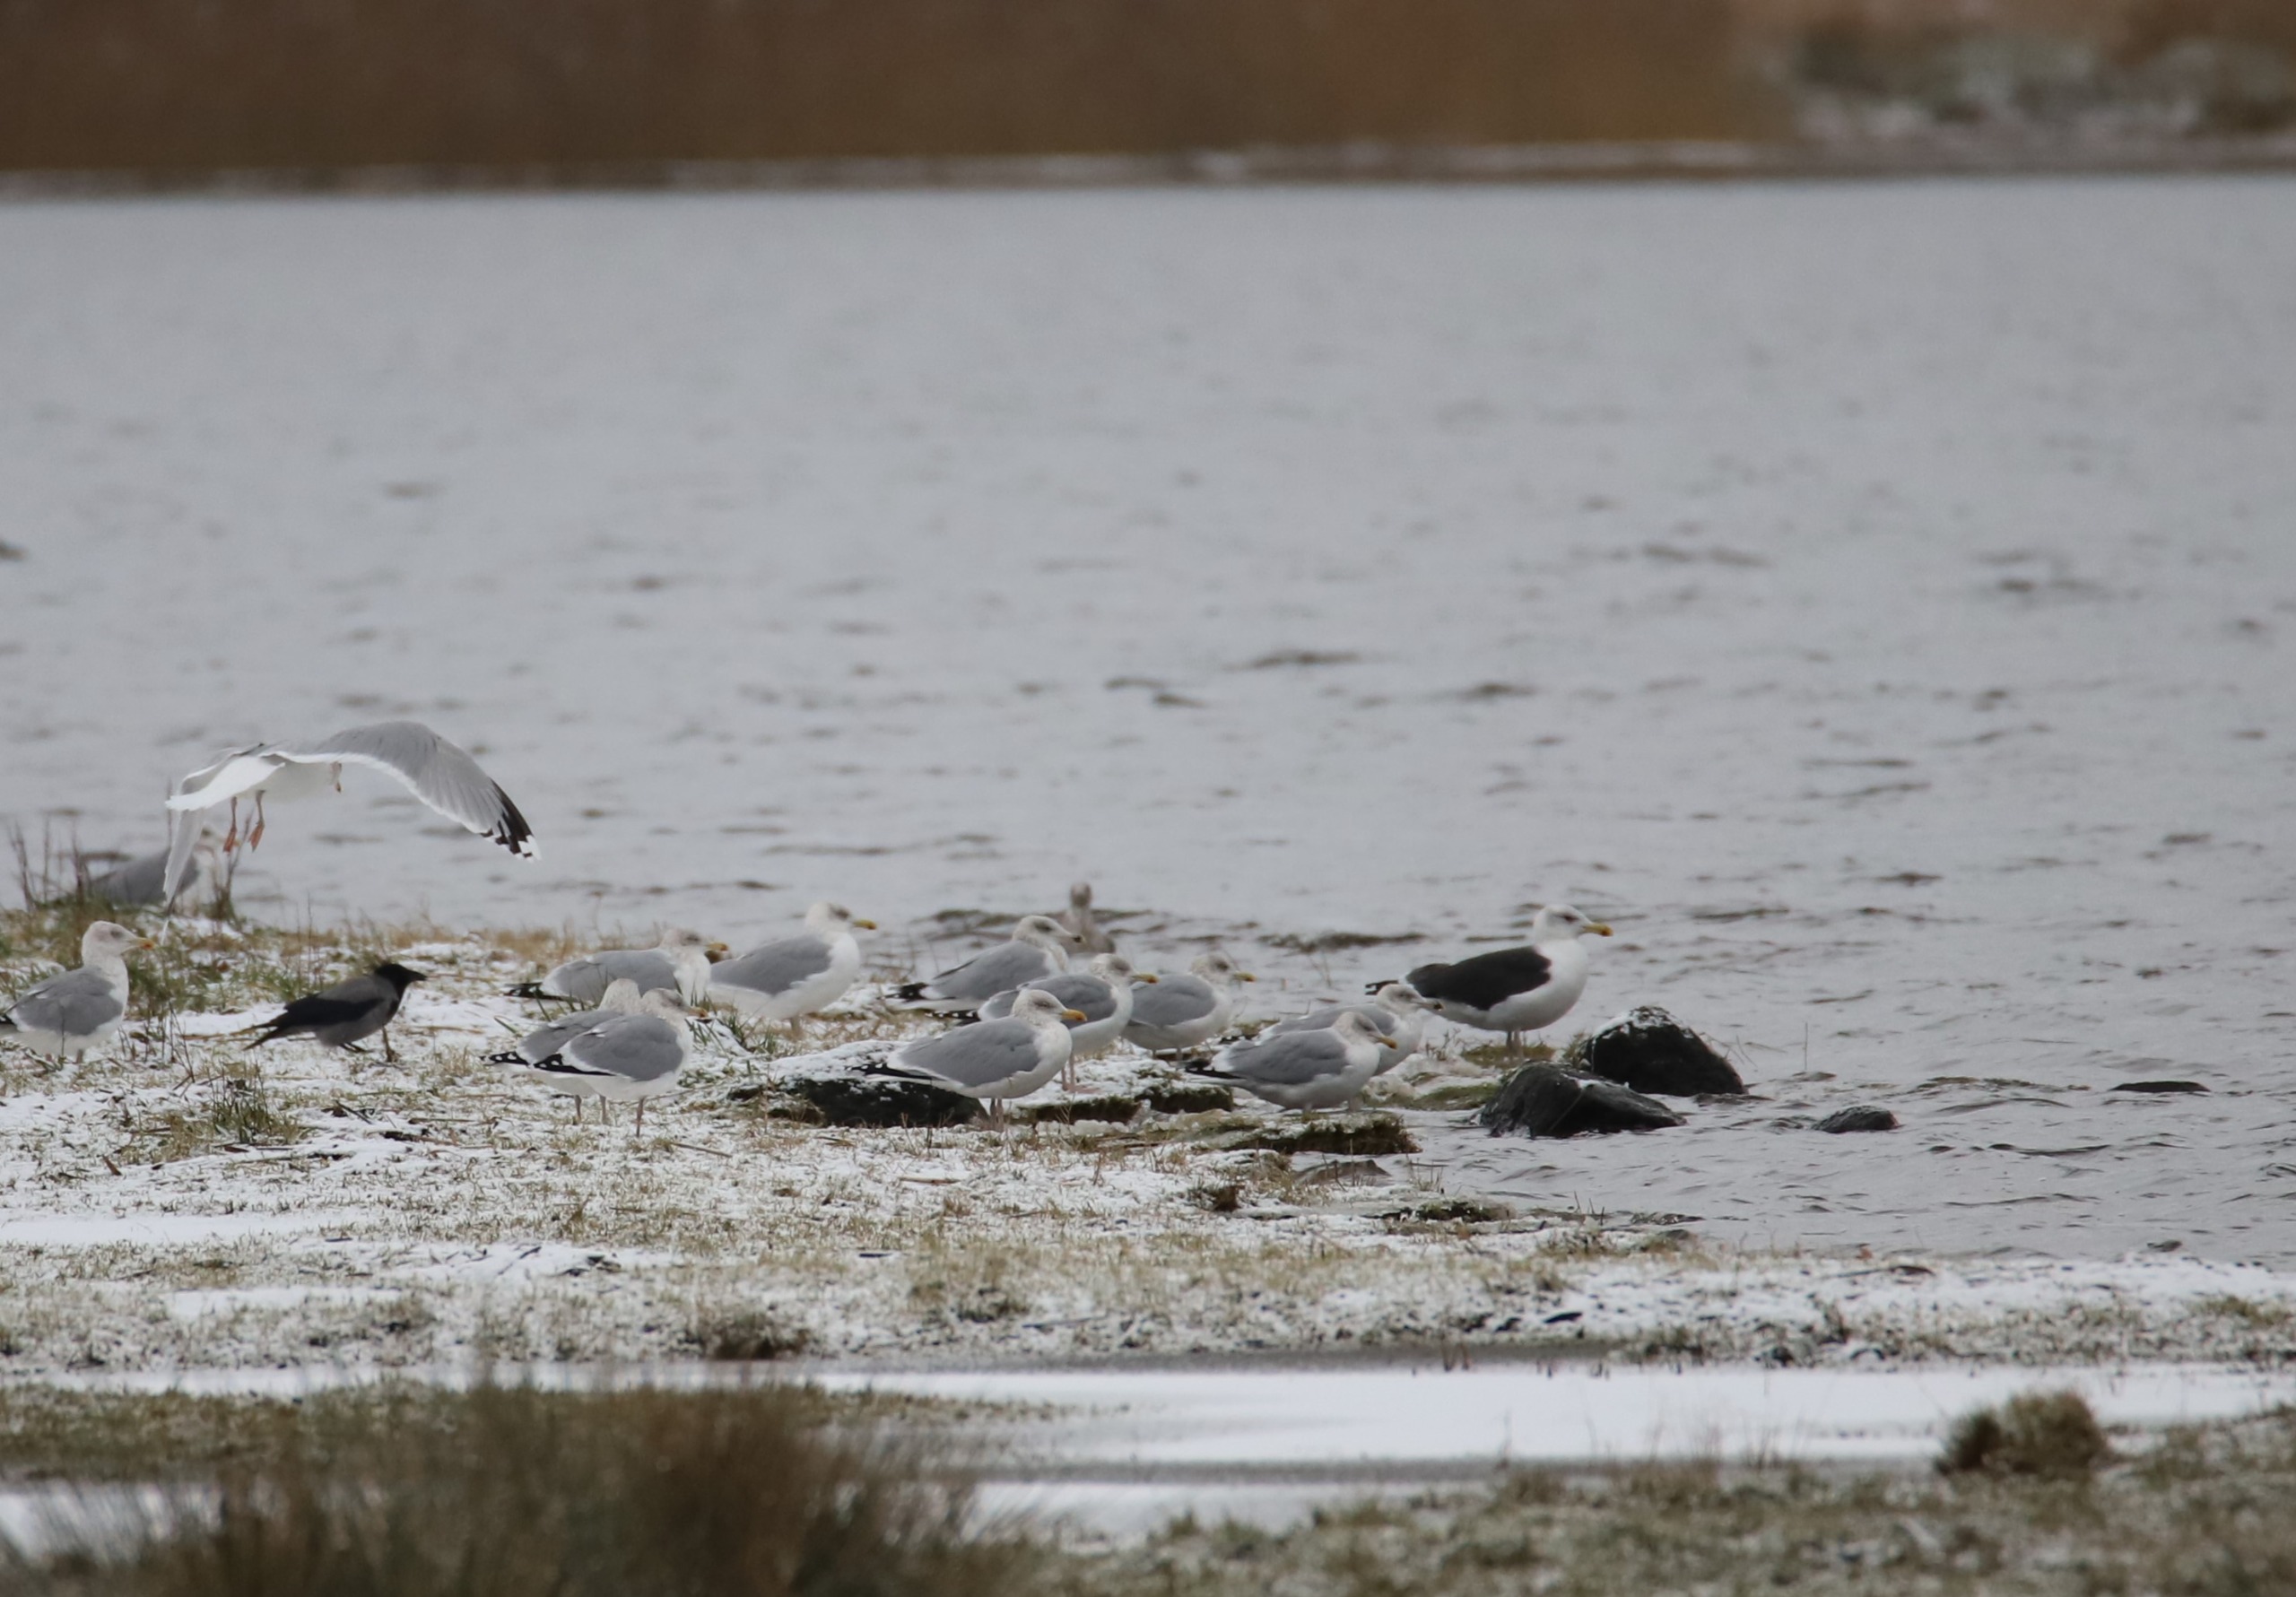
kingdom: Animalia
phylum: Chordata
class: Aves
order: Charadriiformes
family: Laridae
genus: Larus
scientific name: Larus argentatus
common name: Sølvmåge
